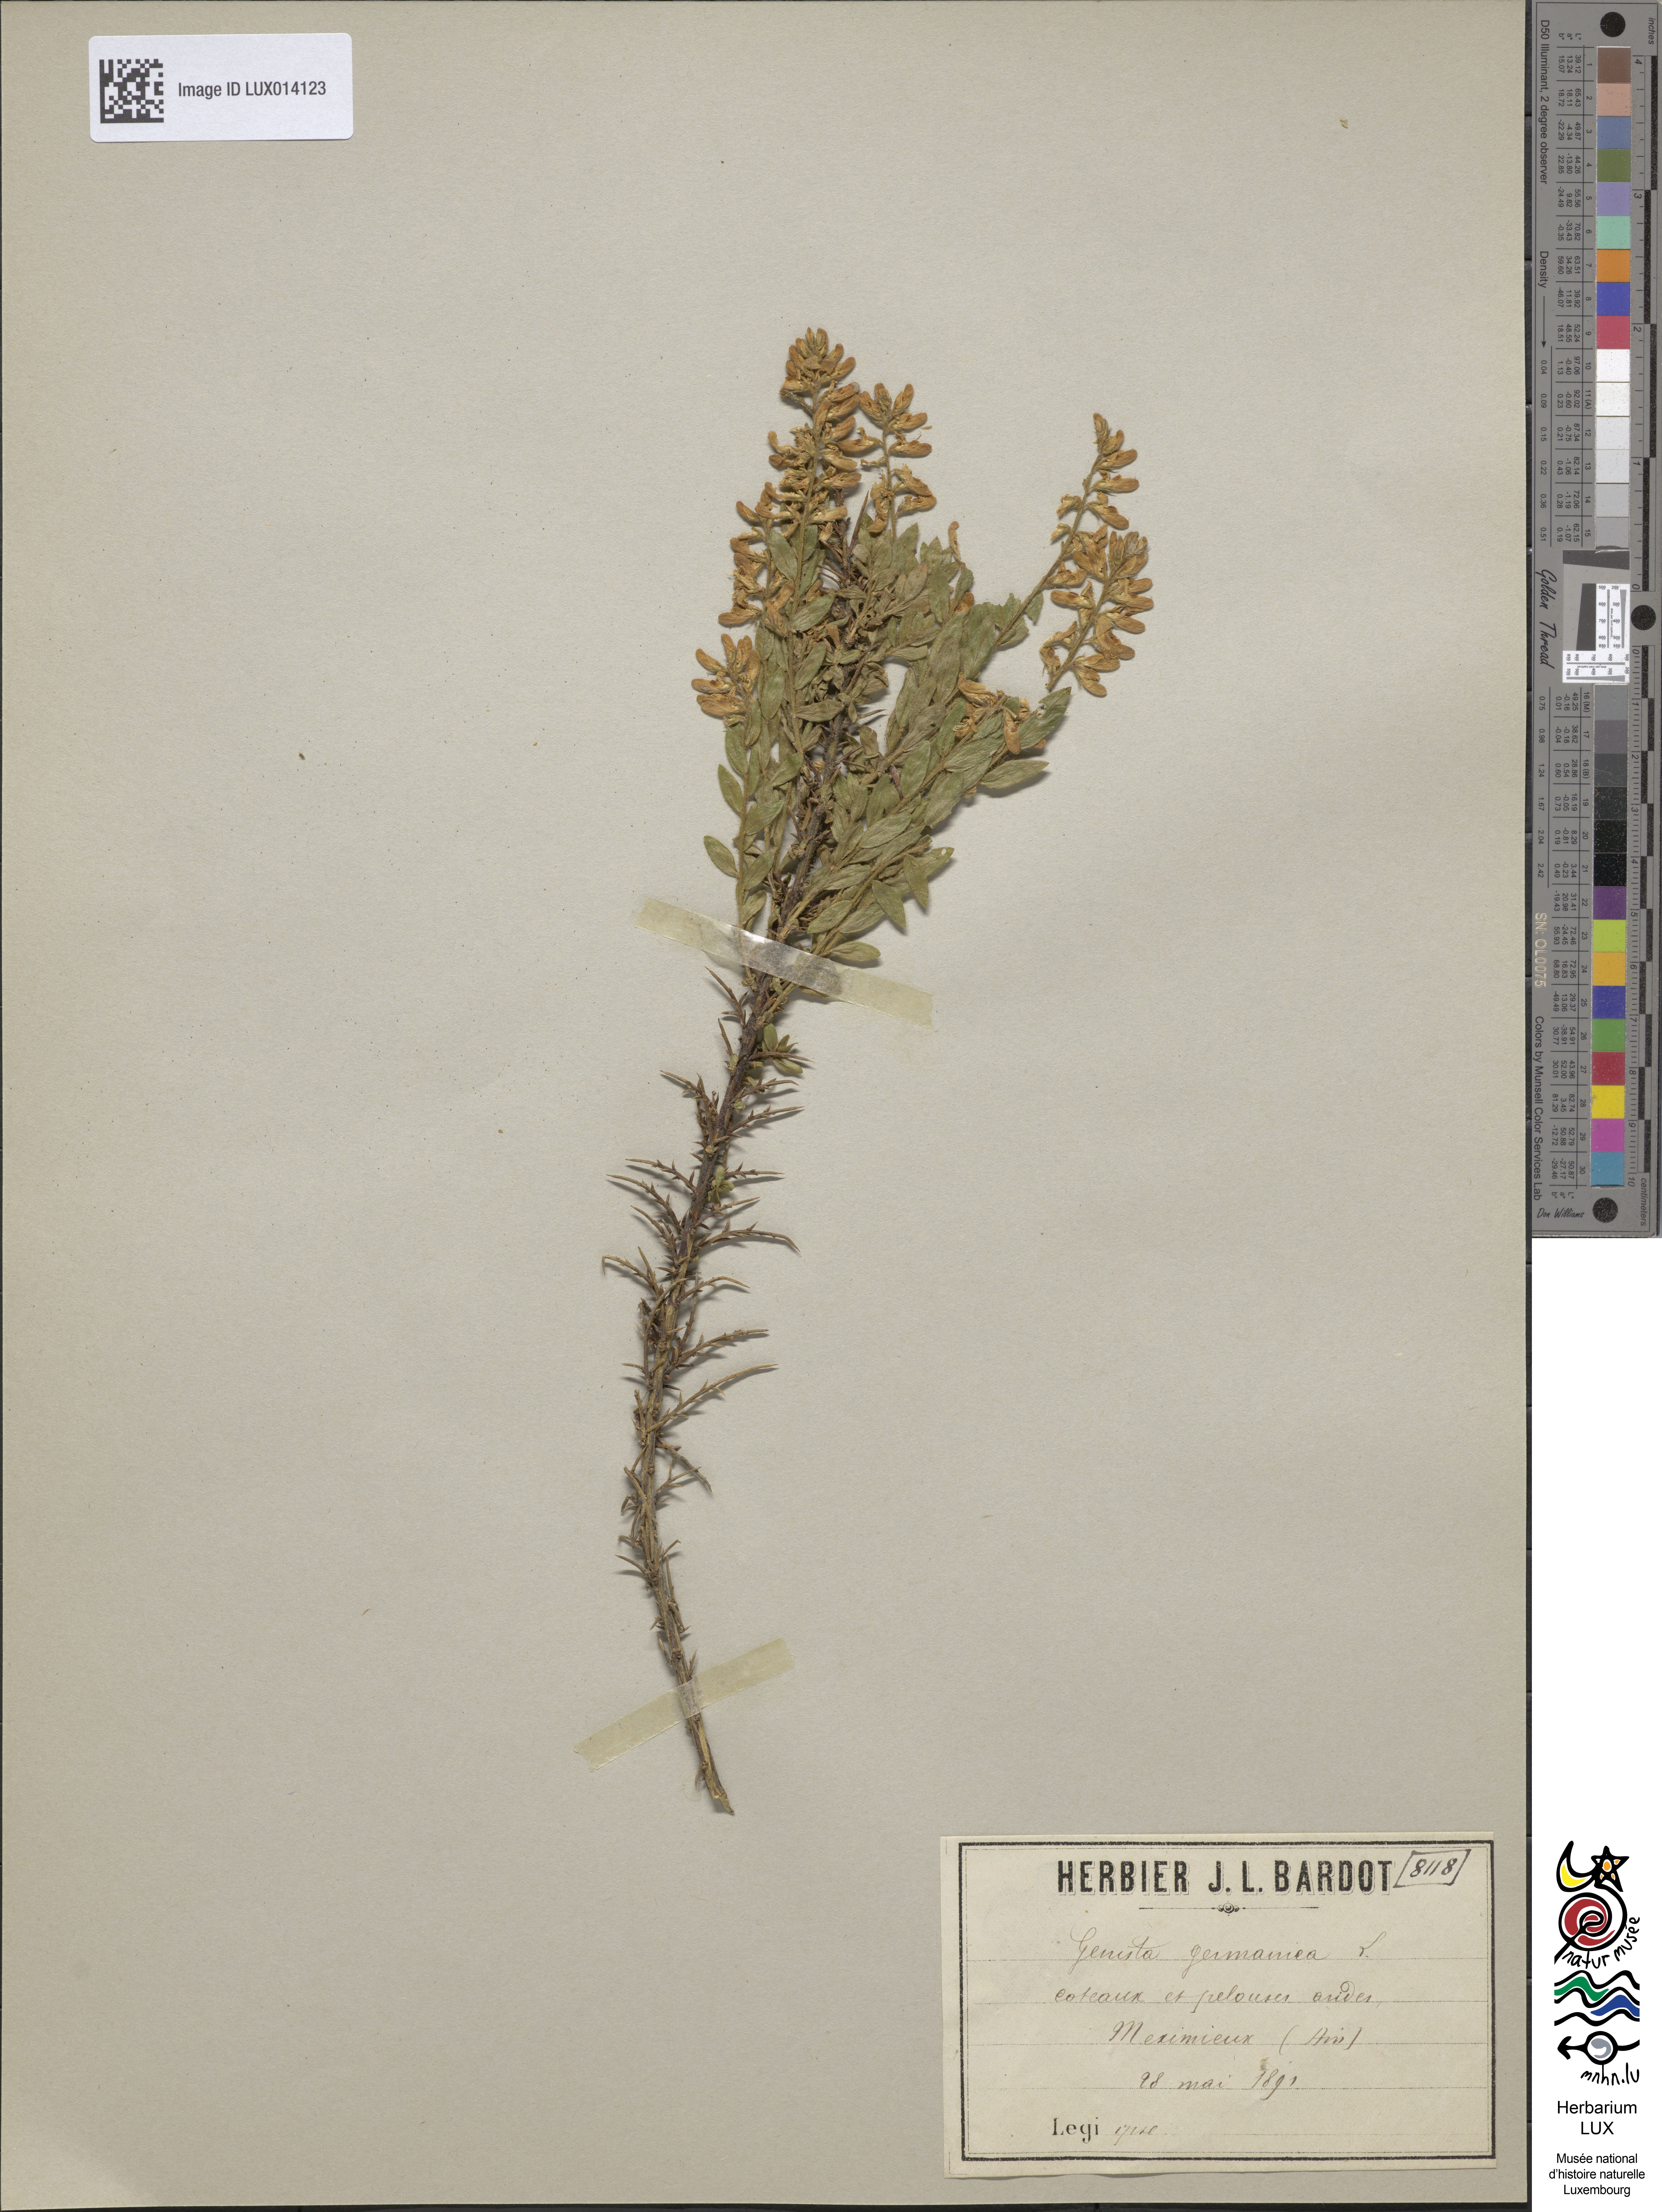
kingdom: Plantae
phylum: Tracheophyta
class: Magnoliopsida
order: Fabales
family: Fabaceae
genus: Genista
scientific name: Genista germanica
